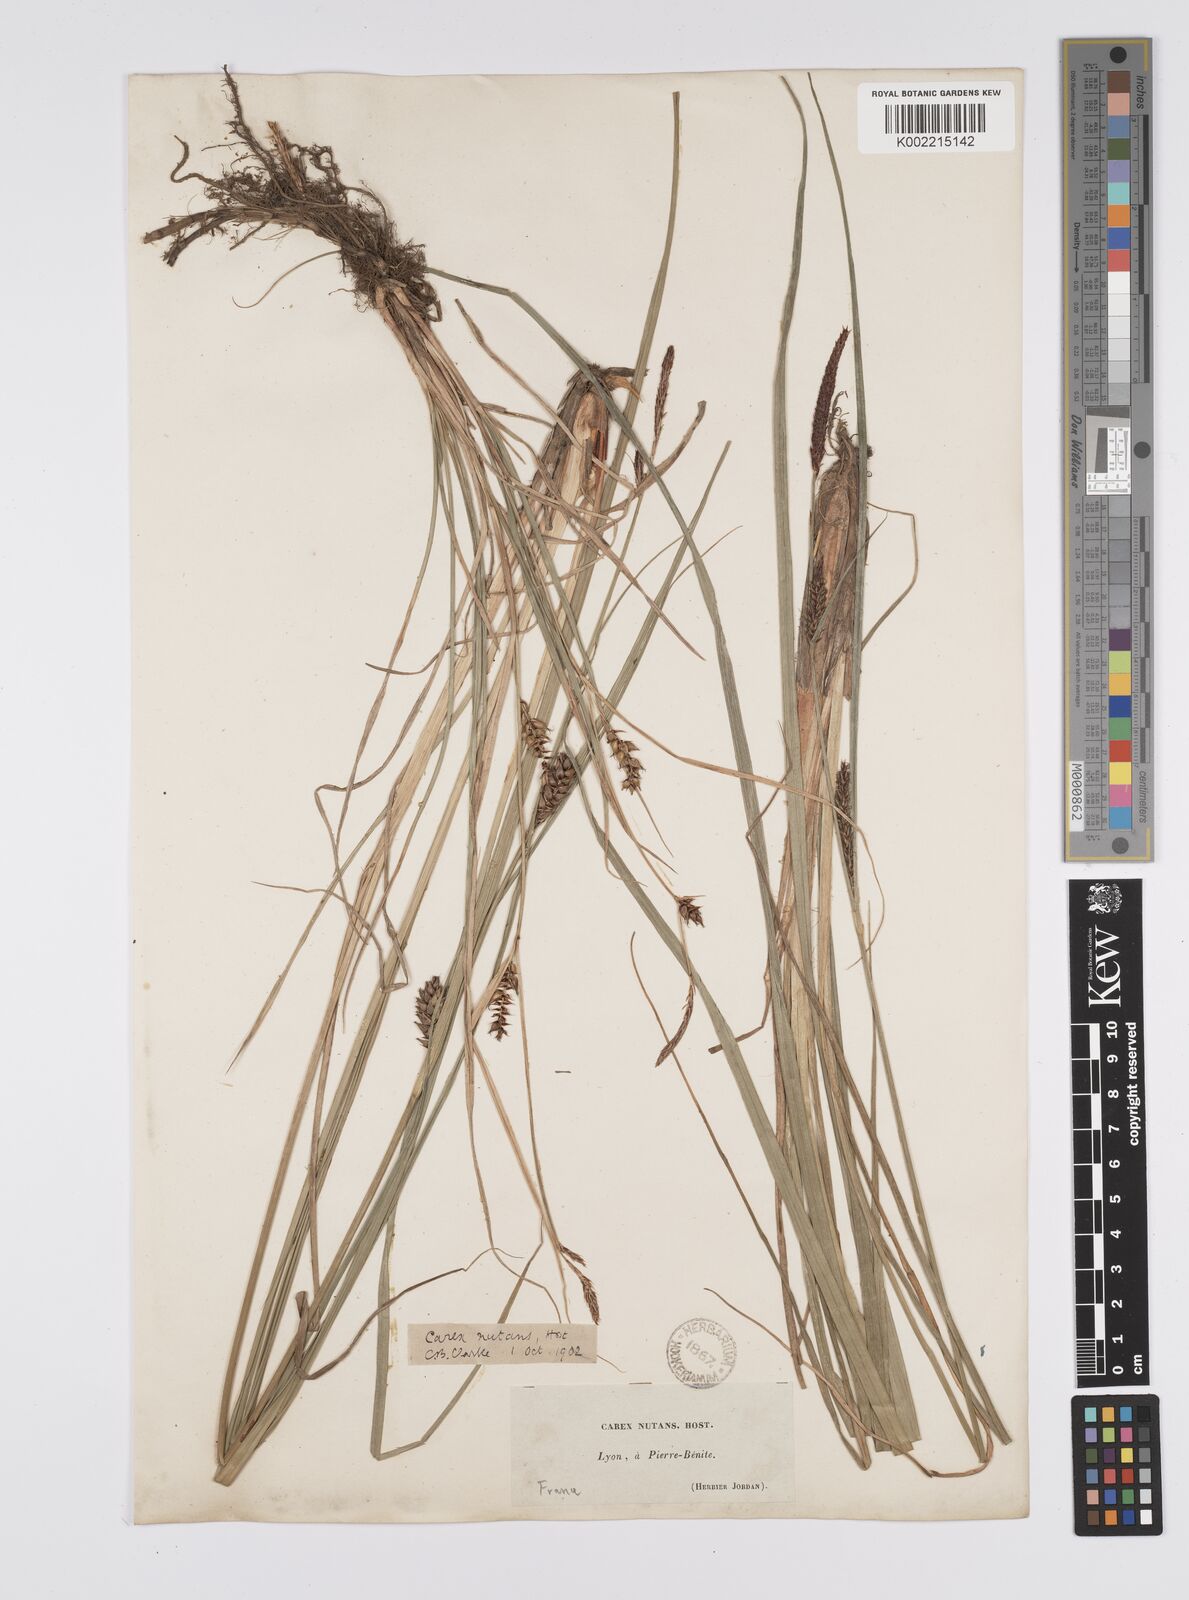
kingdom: Plantae
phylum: Tracheophyta
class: Liliopsida
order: Poales
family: Cyperaceae
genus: Carex
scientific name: Carex melanostachya
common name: Black-spiked sedge
